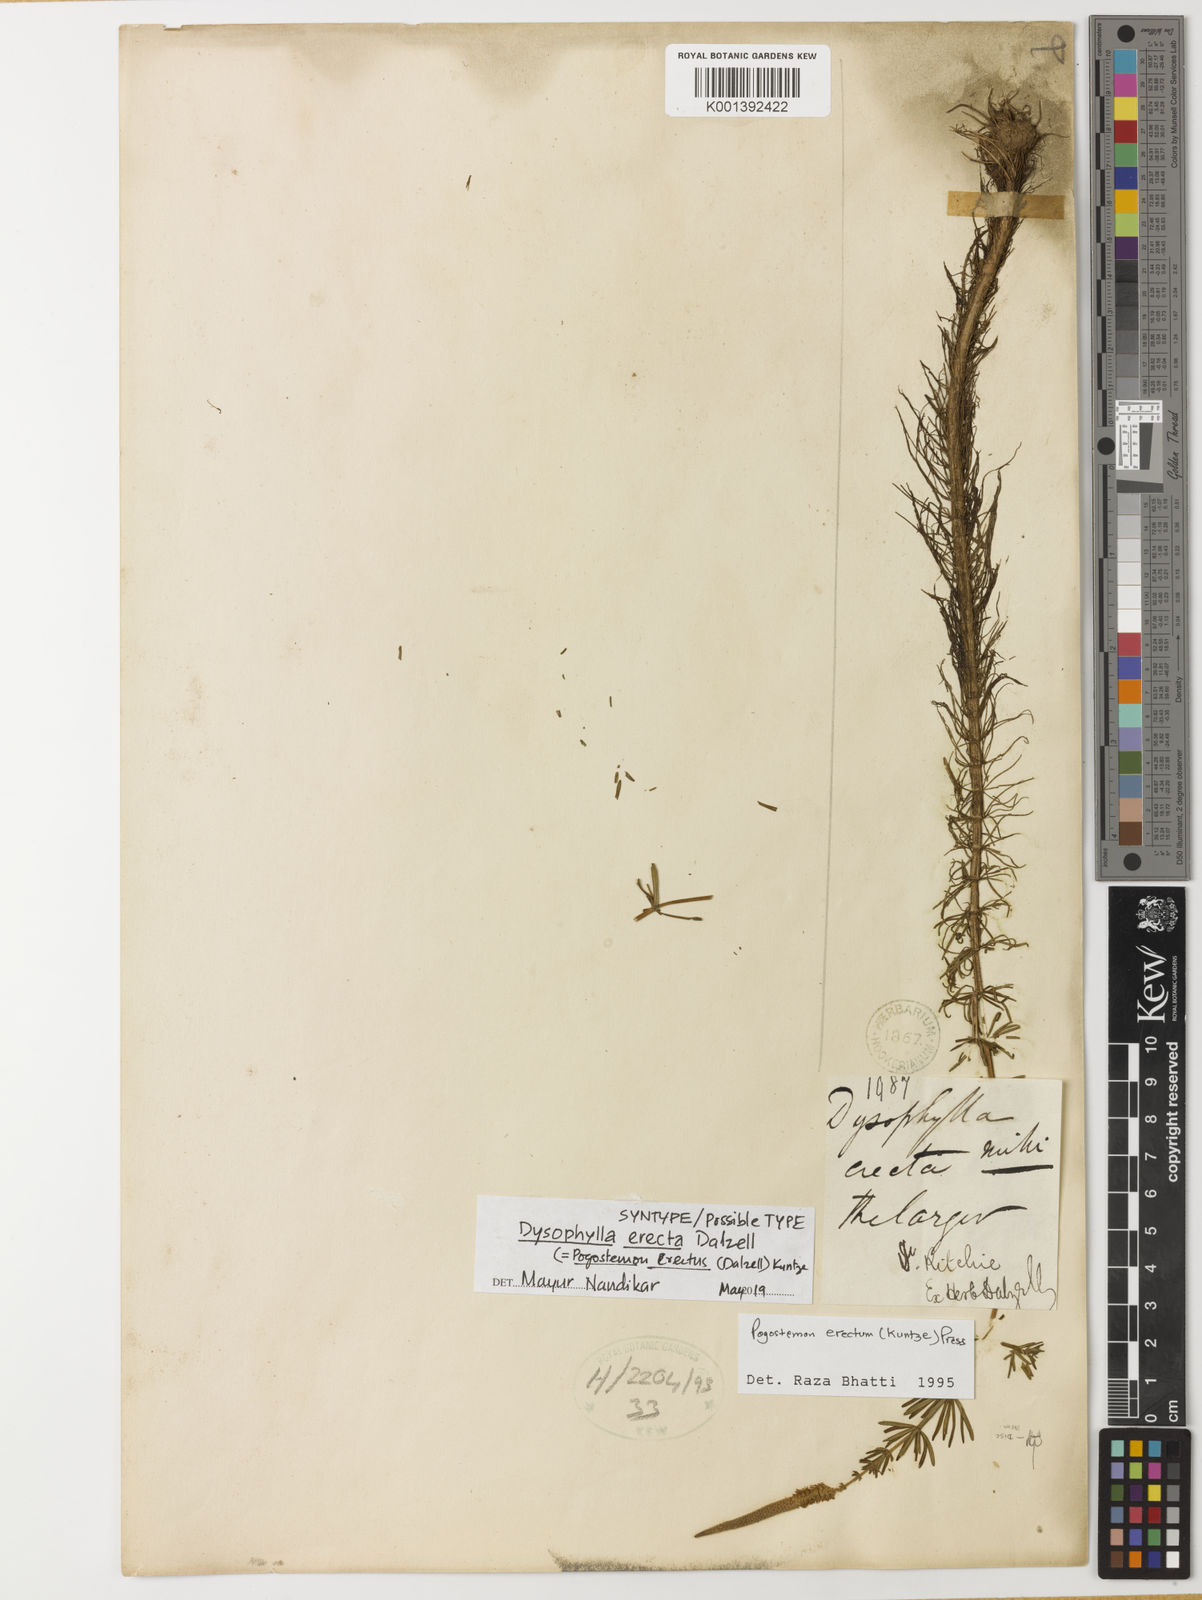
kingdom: Plantae
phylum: Tracheophyta
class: Magnoliopsida
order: Lamiales
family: Lamiaceae
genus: Pogostemon
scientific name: Pogostemon erectus
